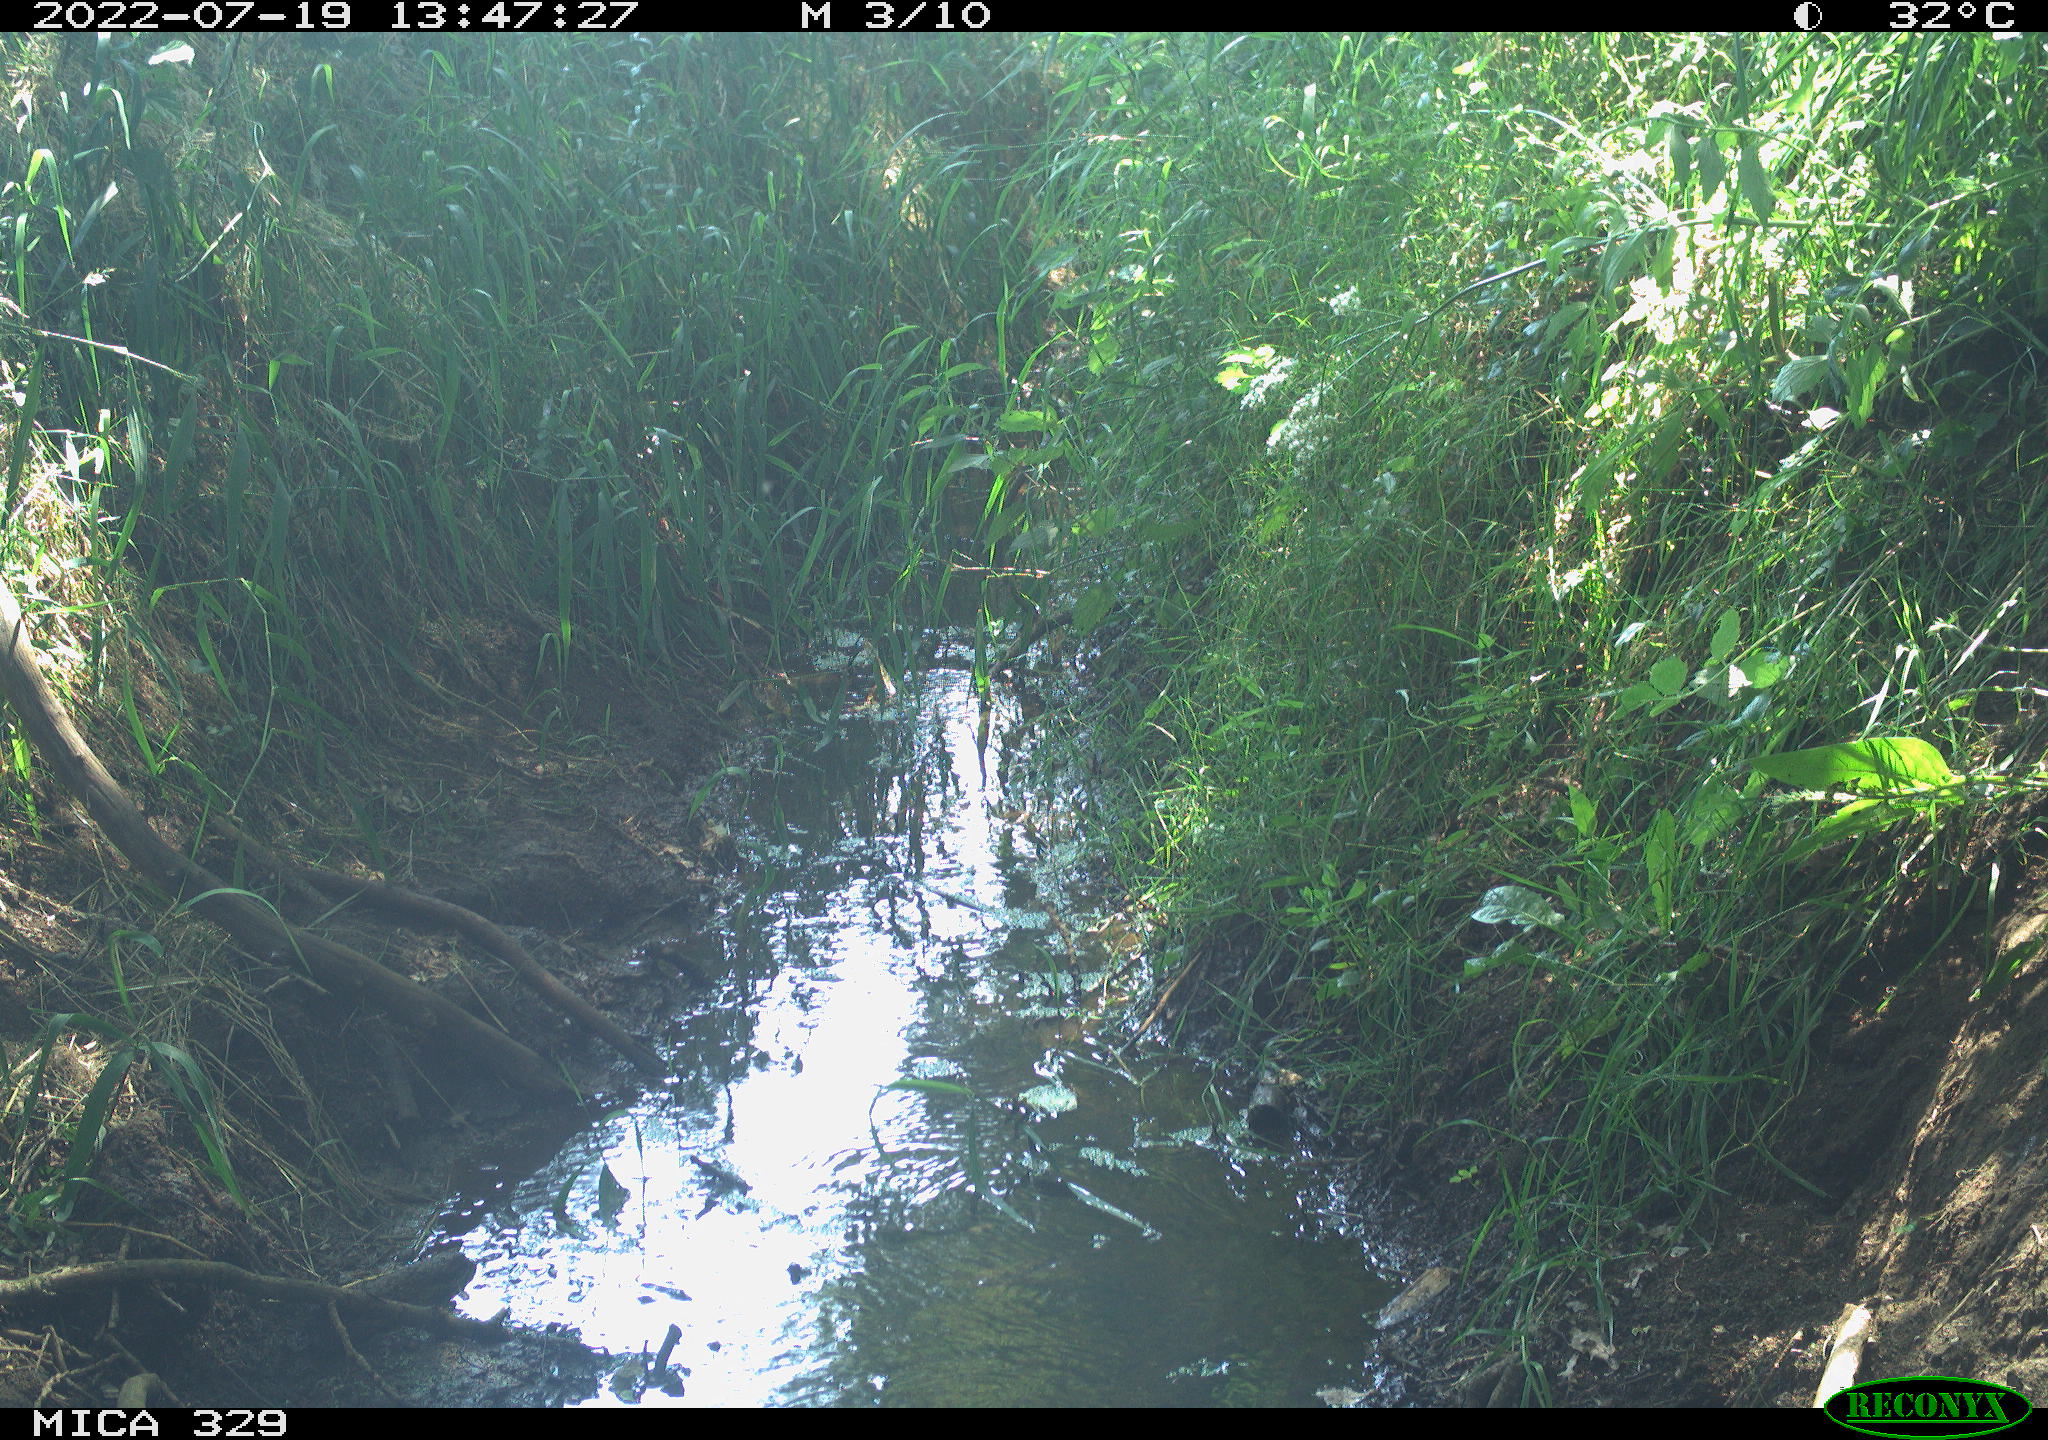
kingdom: Animalia
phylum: Chordata
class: Aves
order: Columbiformes
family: Columbidae
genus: Columba
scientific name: Columba palumbus
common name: Common wood pigeon
